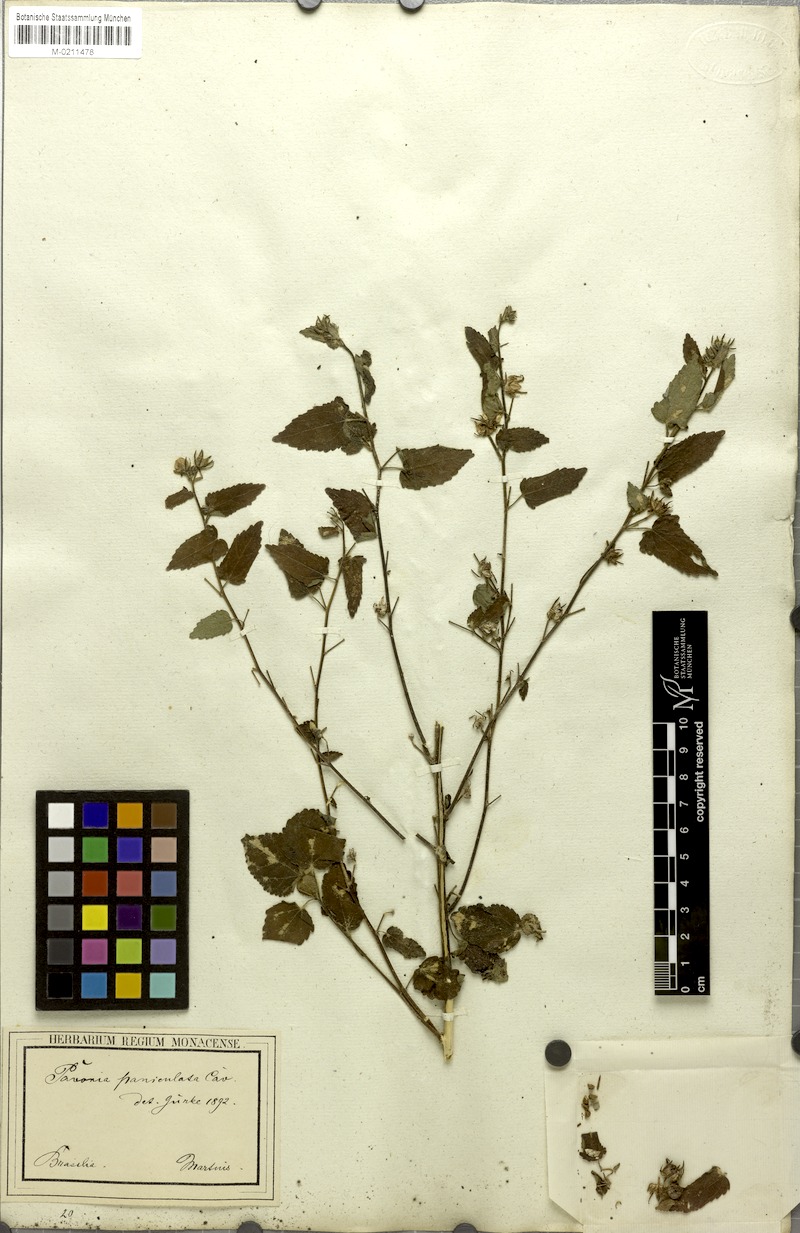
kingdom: Plantae
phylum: Tracheophyta
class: Magnoliopsida
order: Malvales
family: Malvaceae
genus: Pavonia
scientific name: Pavonia paniculata
